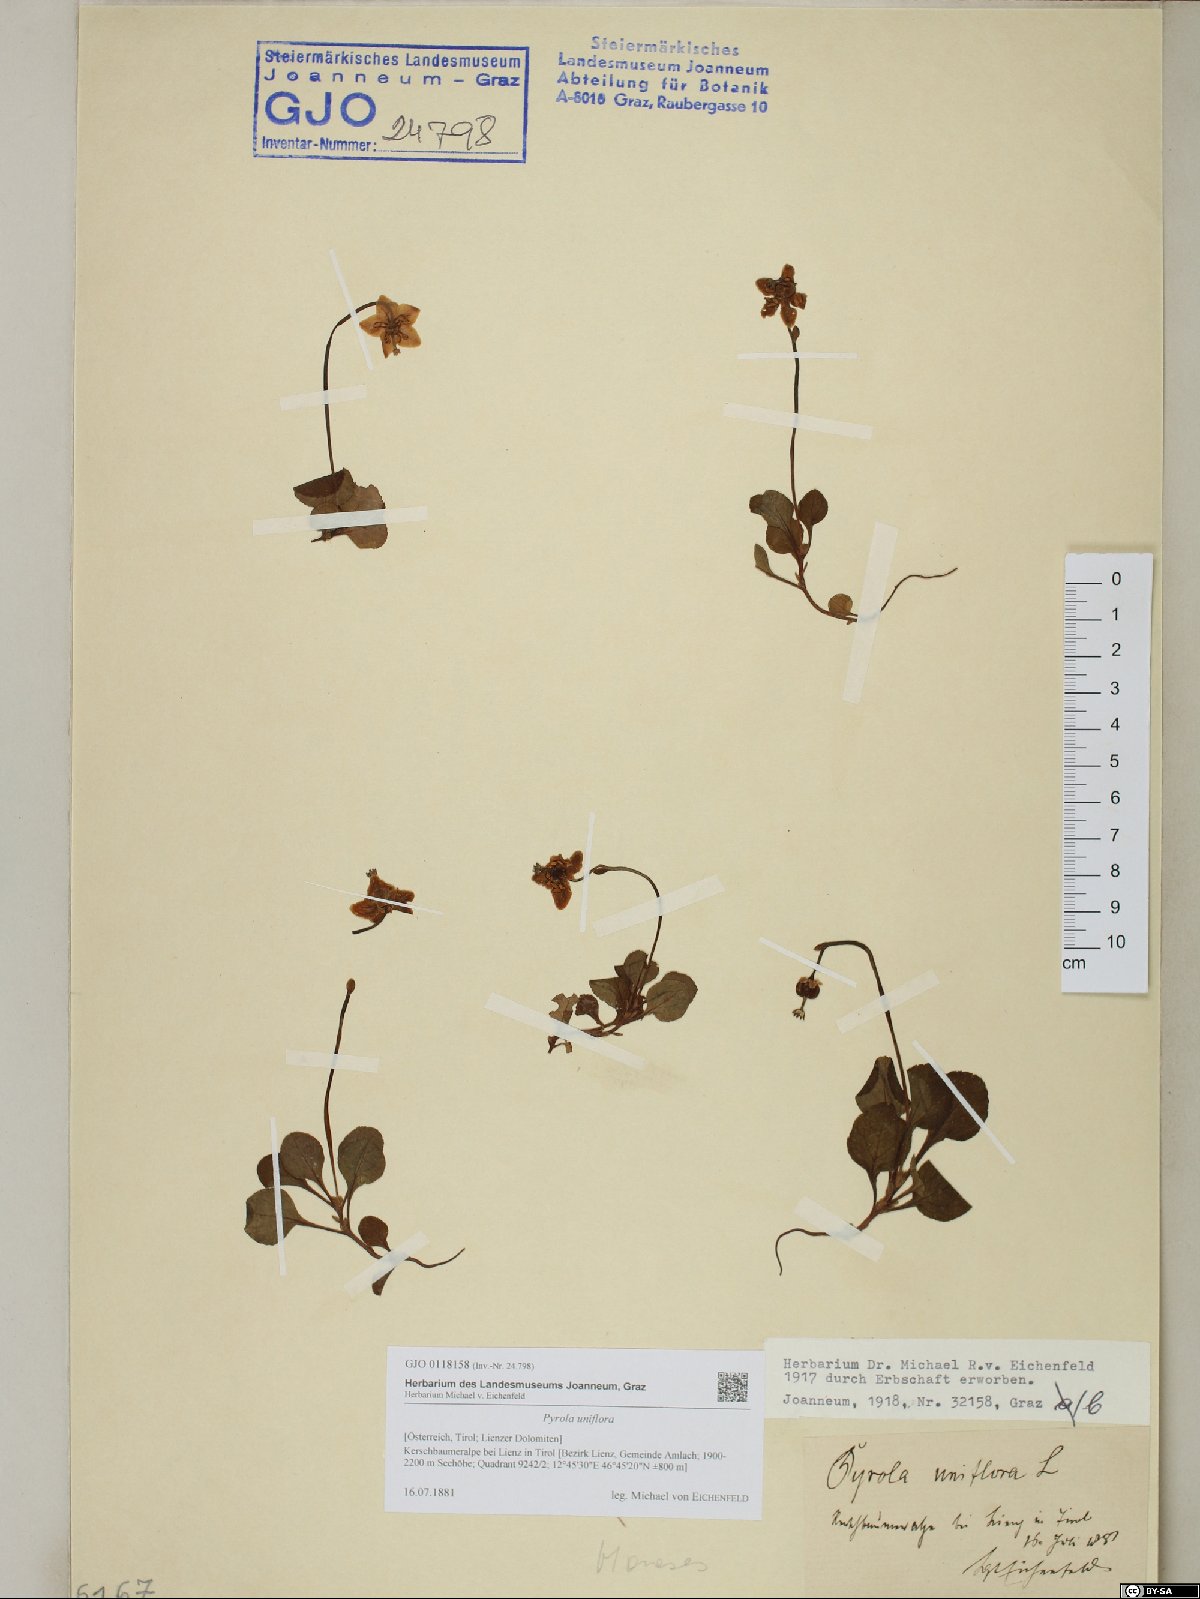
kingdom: Plantae
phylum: Tracheophyta
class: Magnoliopsida
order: Ericales
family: Ericaceae
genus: Moneses
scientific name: Moneses uniflora
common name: One-flowered wintergreen
